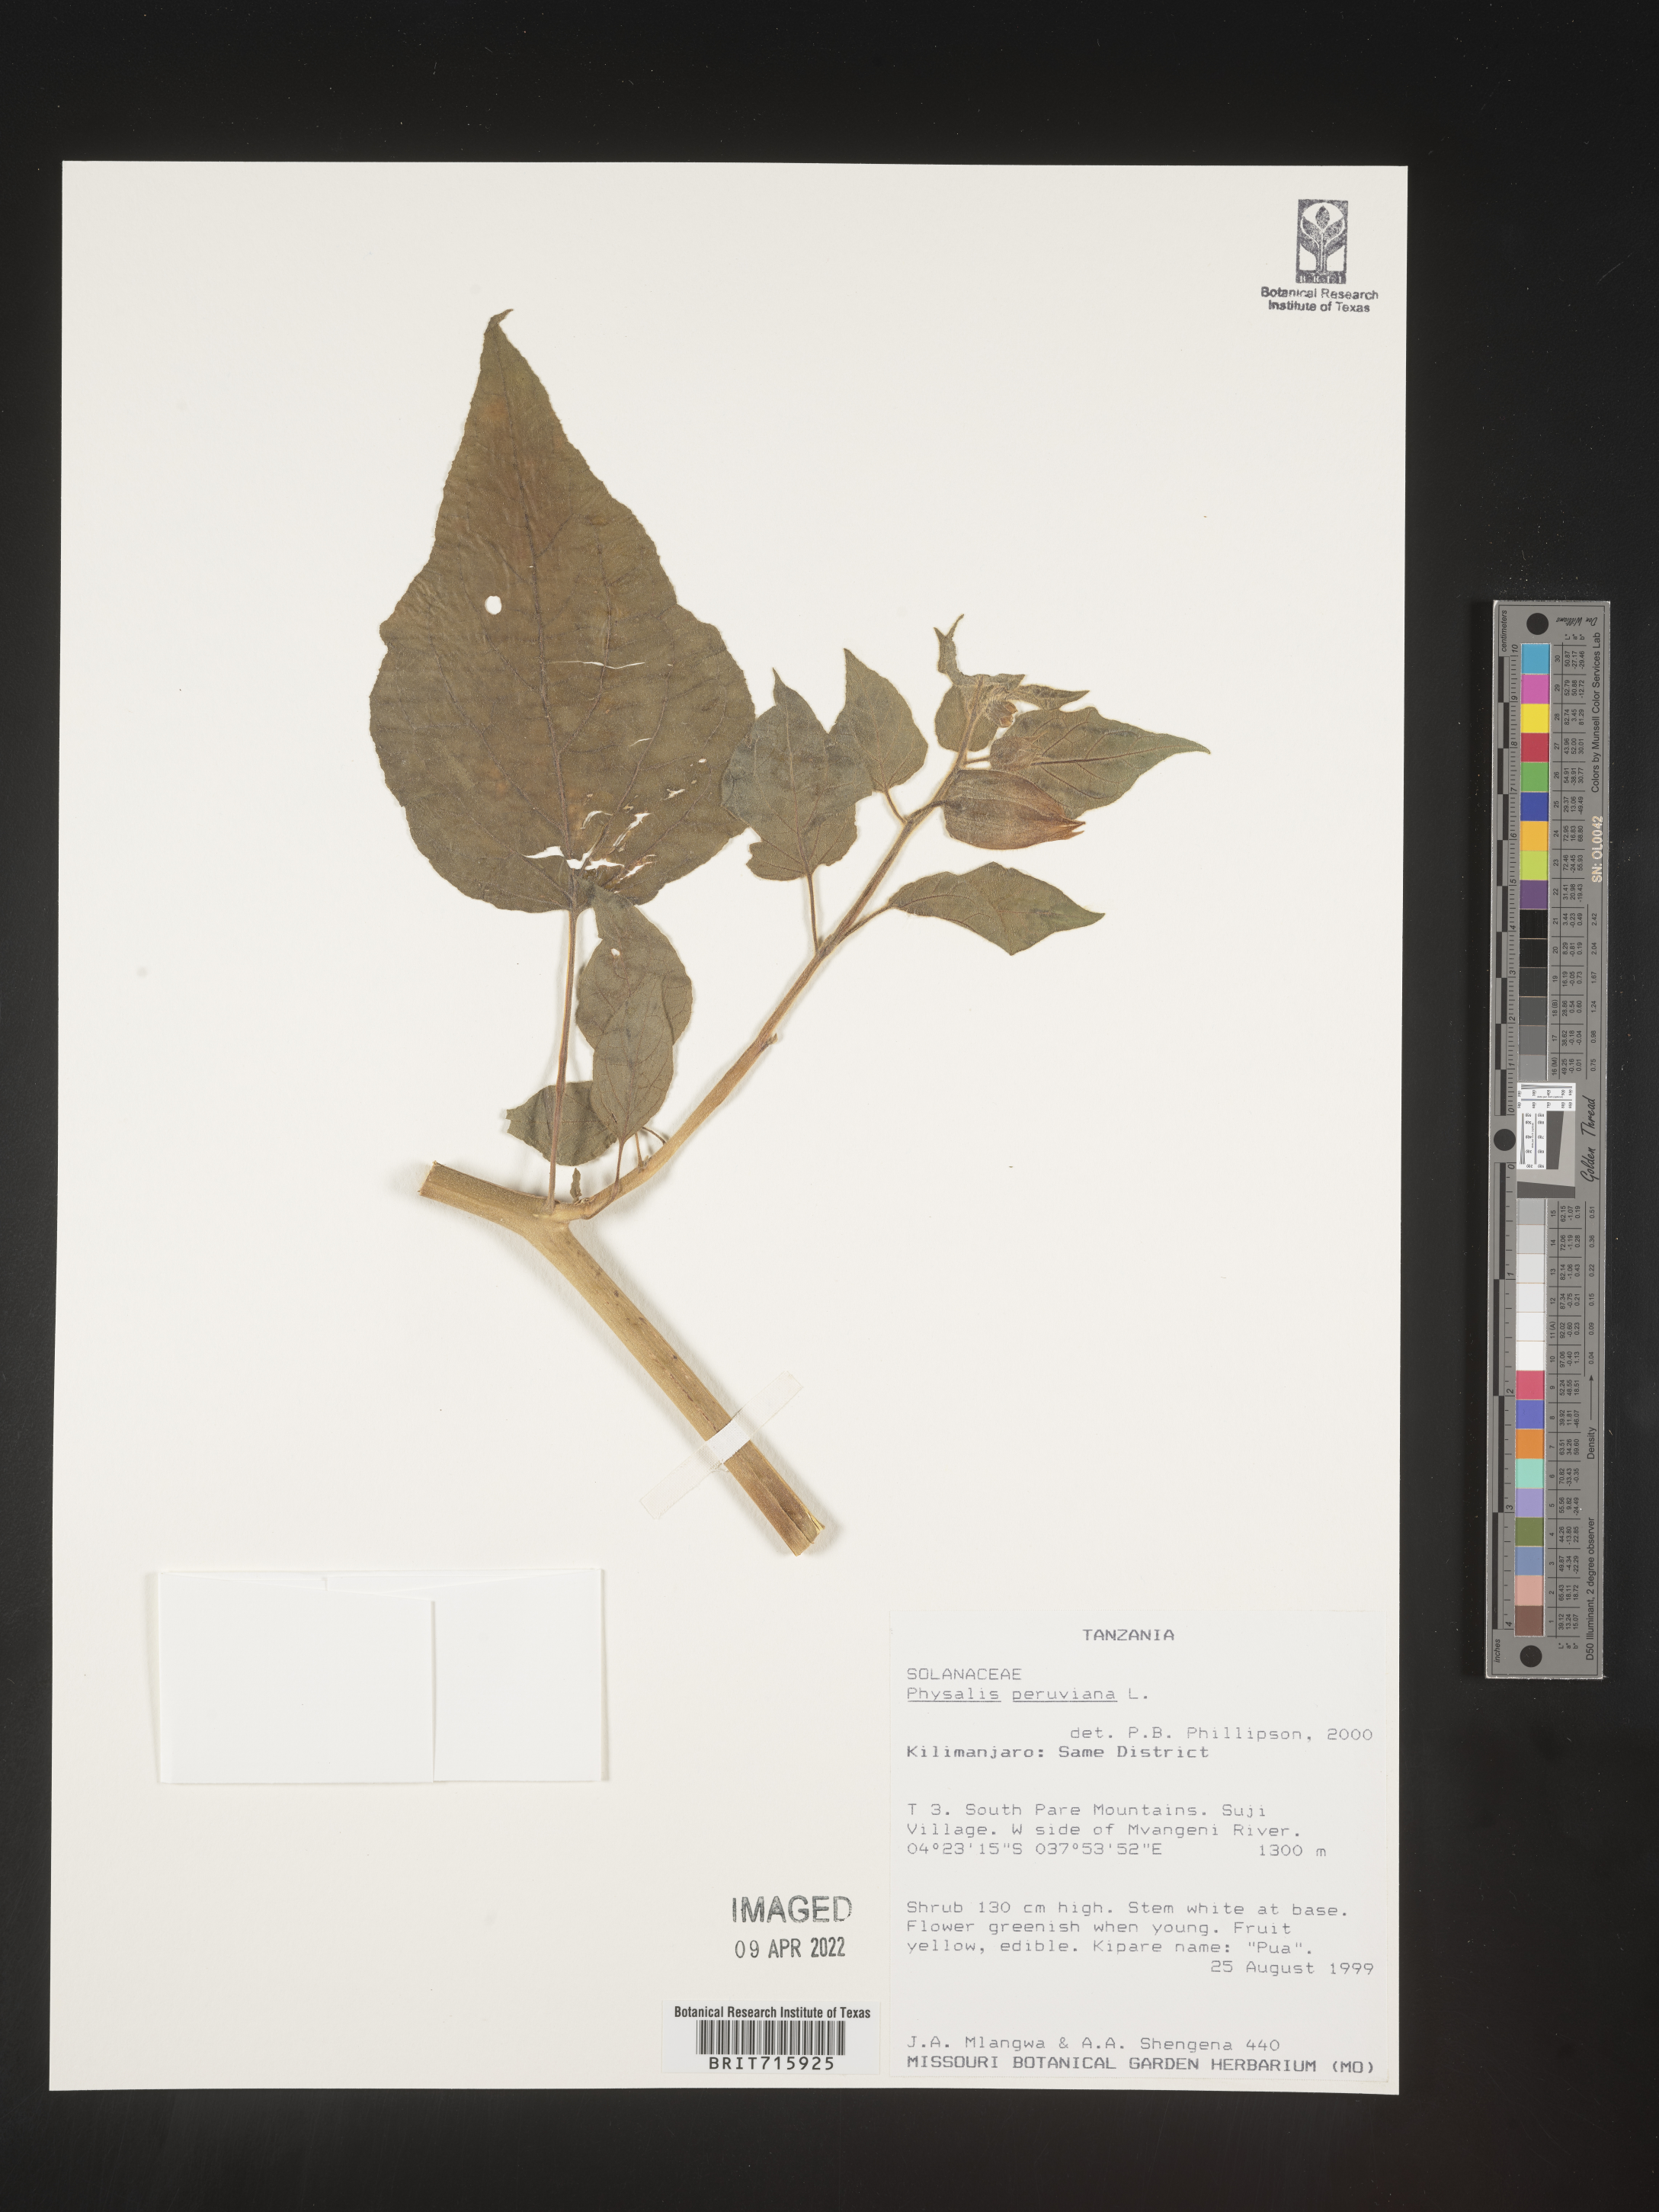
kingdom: Plantae
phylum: Tracheophyta
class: Magnoliopsida
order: Solanales
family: Solanaceae
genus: Physalis
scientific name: Physalis
